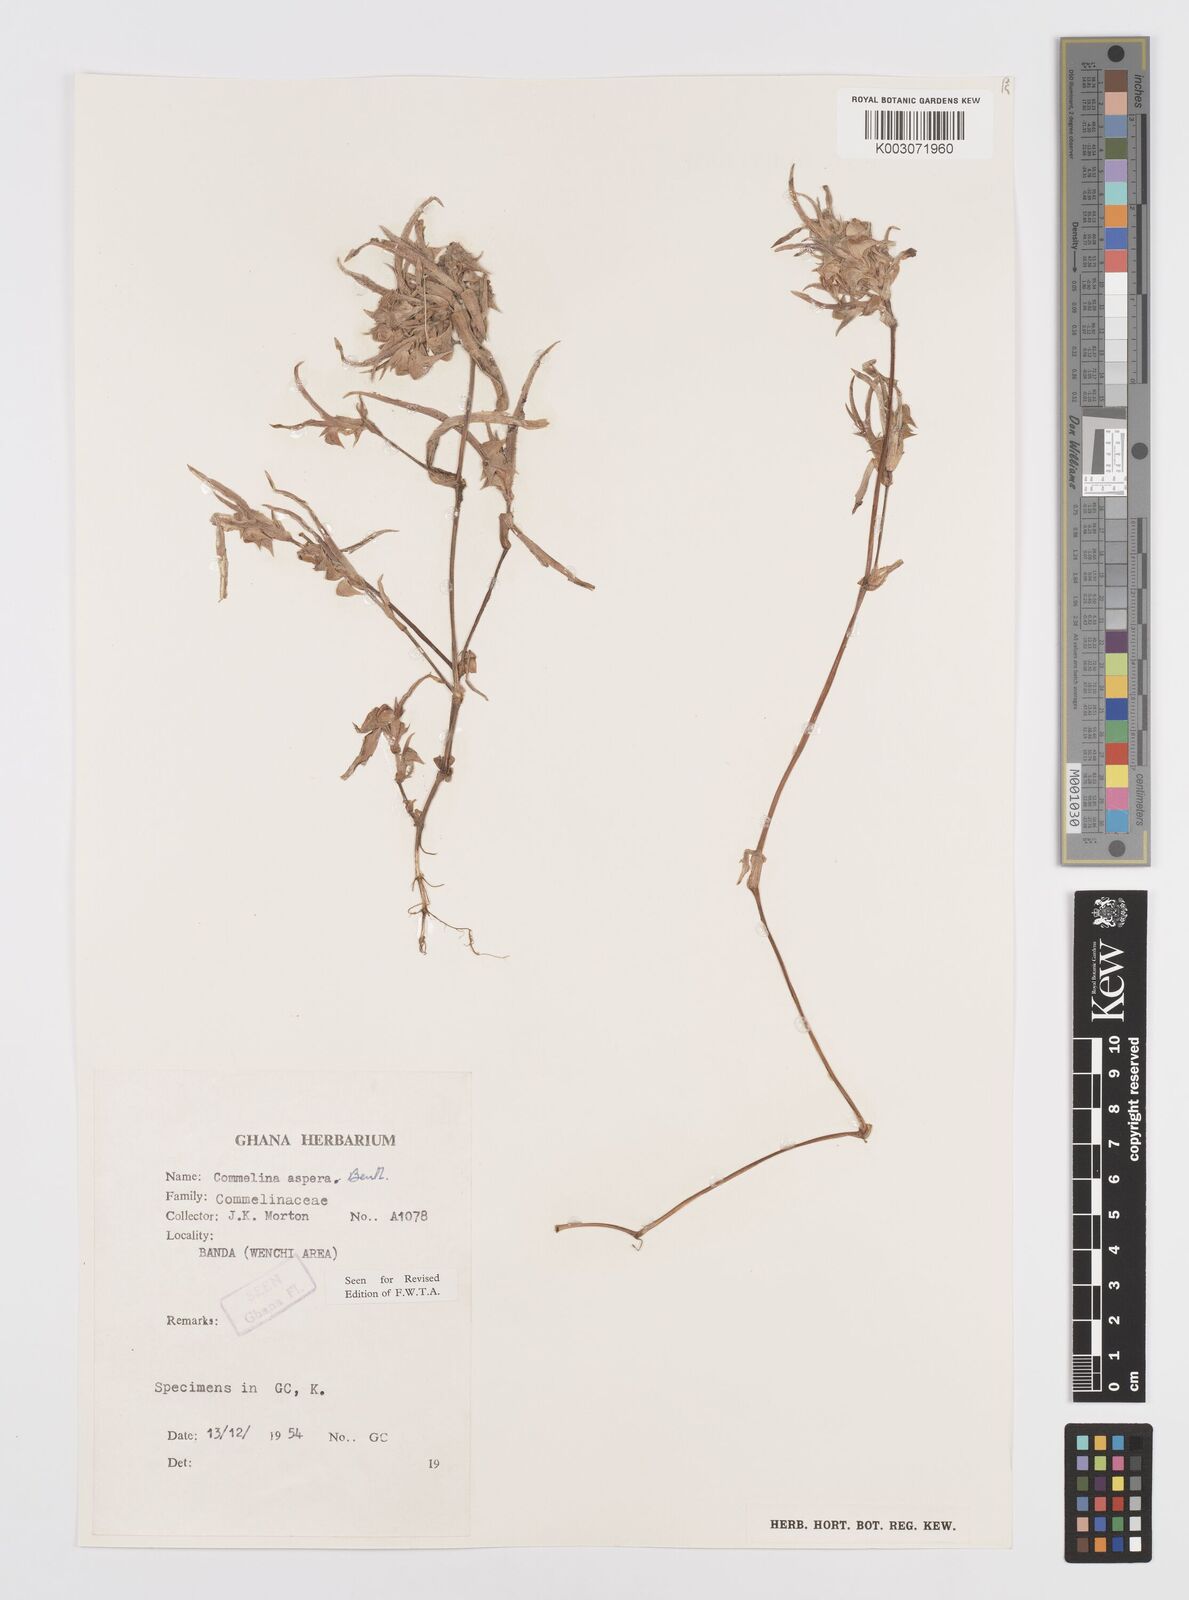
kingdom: Plantae
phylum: Tracheophyta
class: Liliopsida
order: Commelinales
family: Commelinaceae
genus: Commelina
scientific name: Commelina aspera
